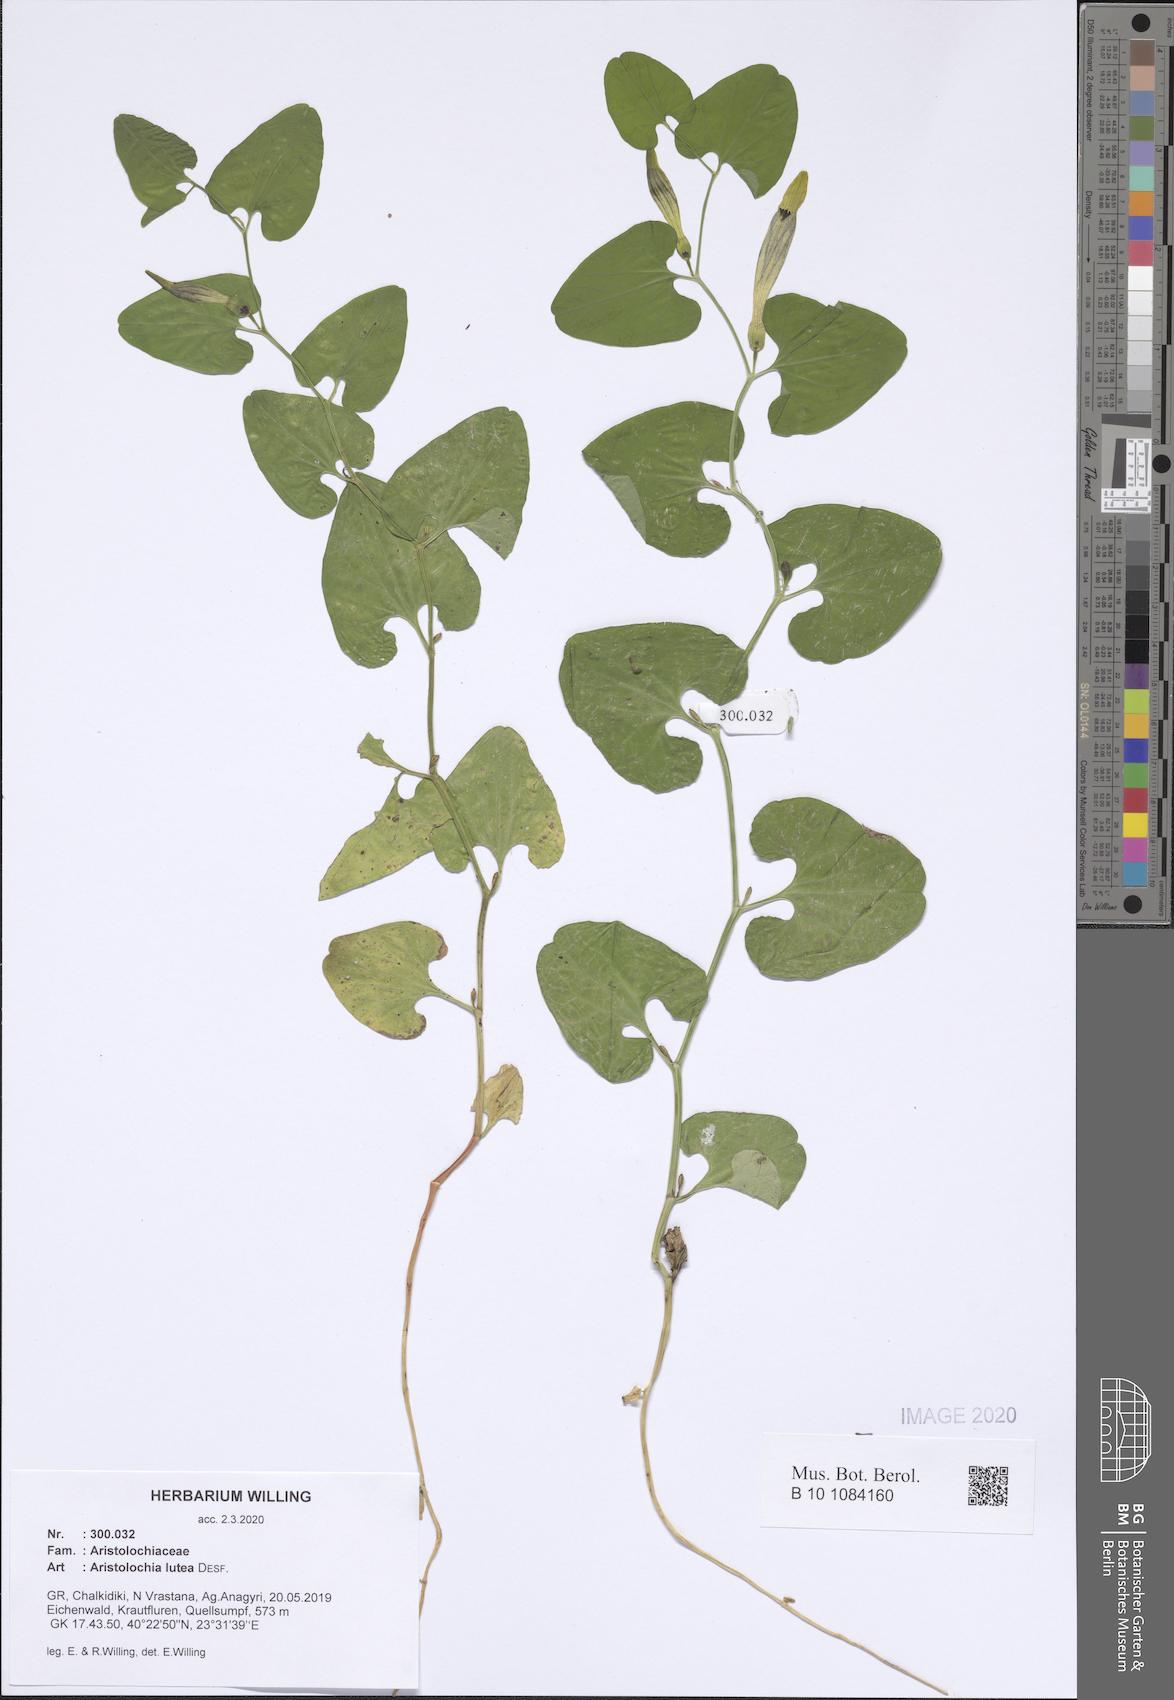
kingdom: Plantae
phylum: Tracheophyta
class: Magnoliopsida
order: Piperales
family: Aristolochiaceae
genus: Aristolochia
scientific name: Aristolochia lutea
